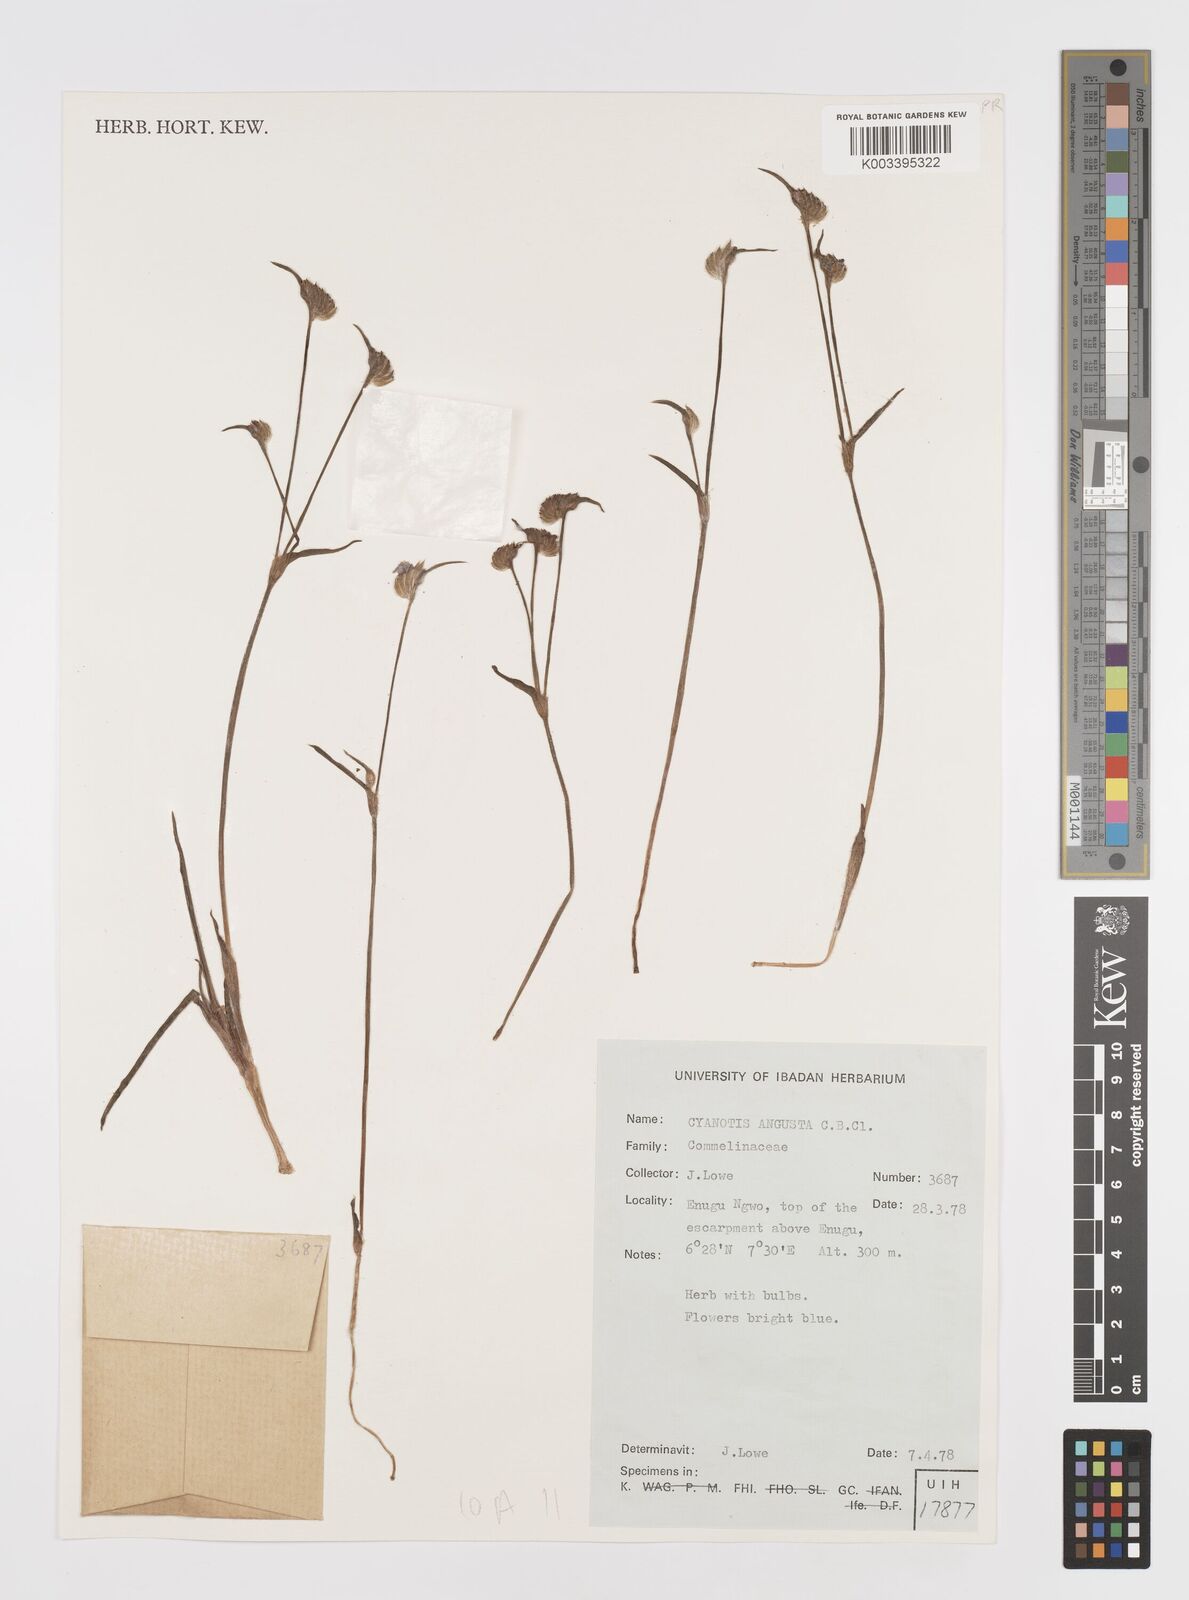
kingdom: Plantae
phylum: Tracheophyta
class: Liliopsida
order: Commelinales
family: Commelinaceae
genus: Cyanotis
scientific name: Cyanotis angusta
